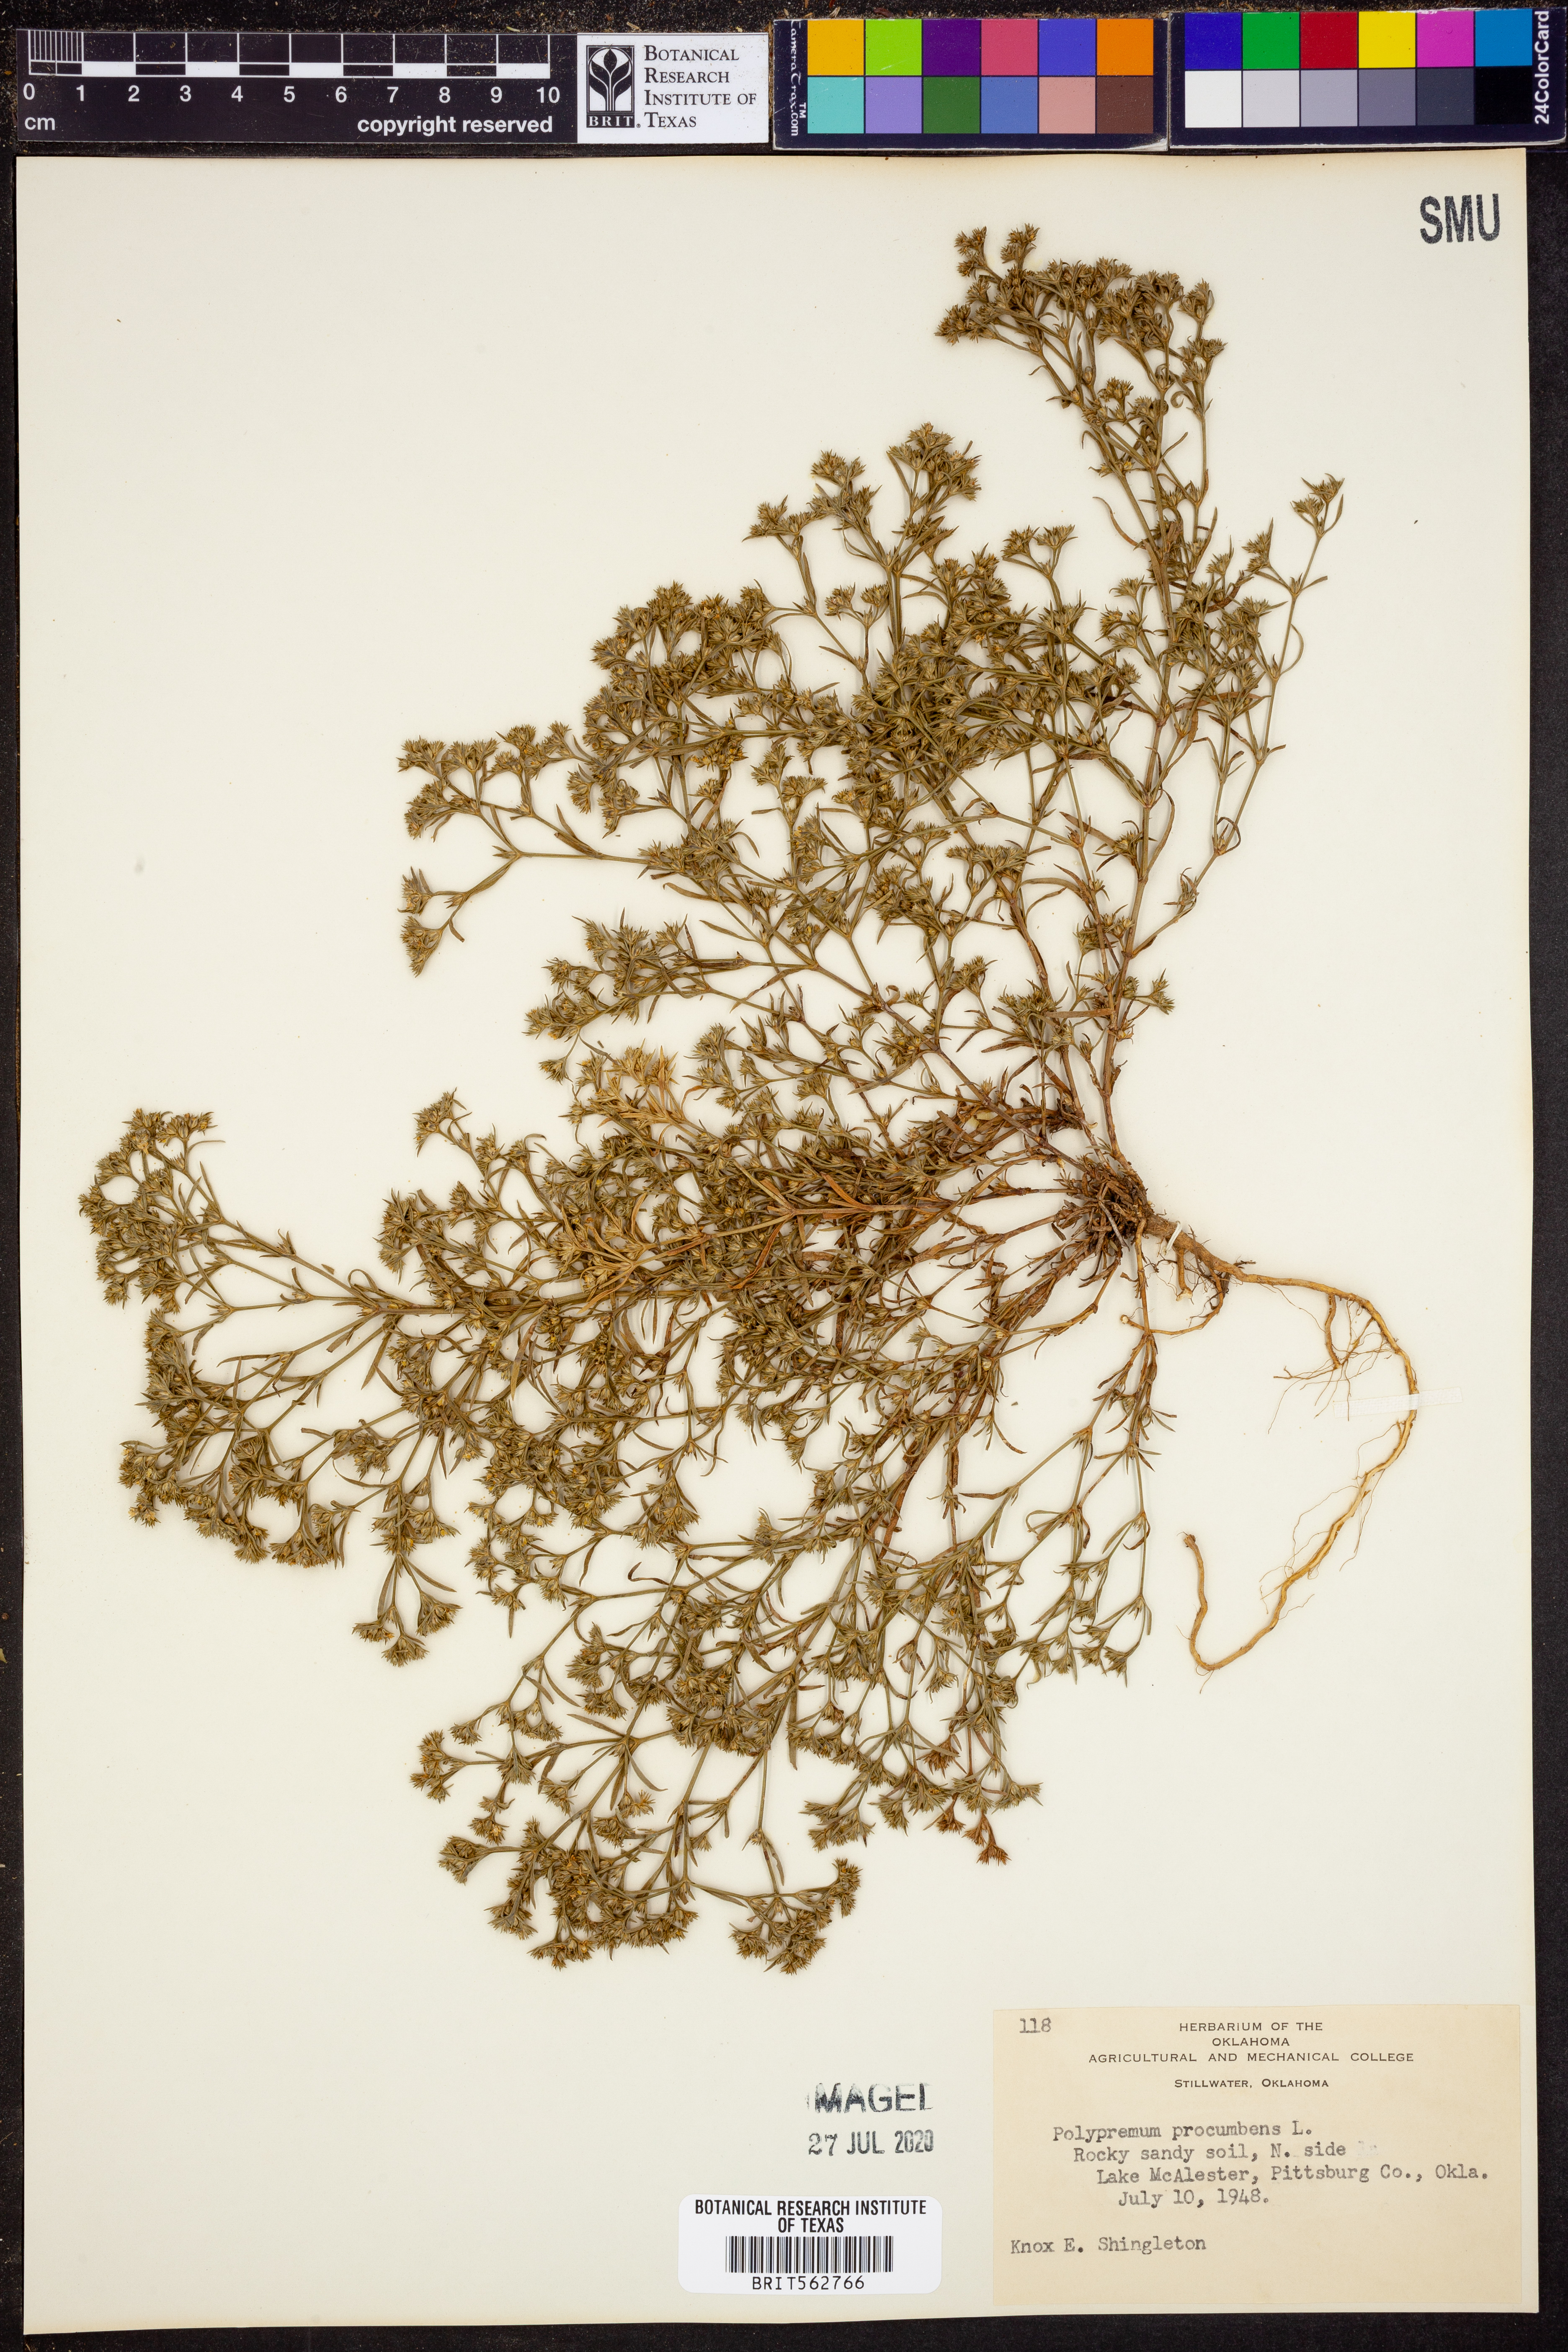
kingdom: Plantae
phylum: Tracheophyta
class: Magnoliopsida
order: Lamiales
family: Tetrachondraceae
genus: Polypremum
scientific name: Polypremum procumbens
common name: Juniper-leaf
